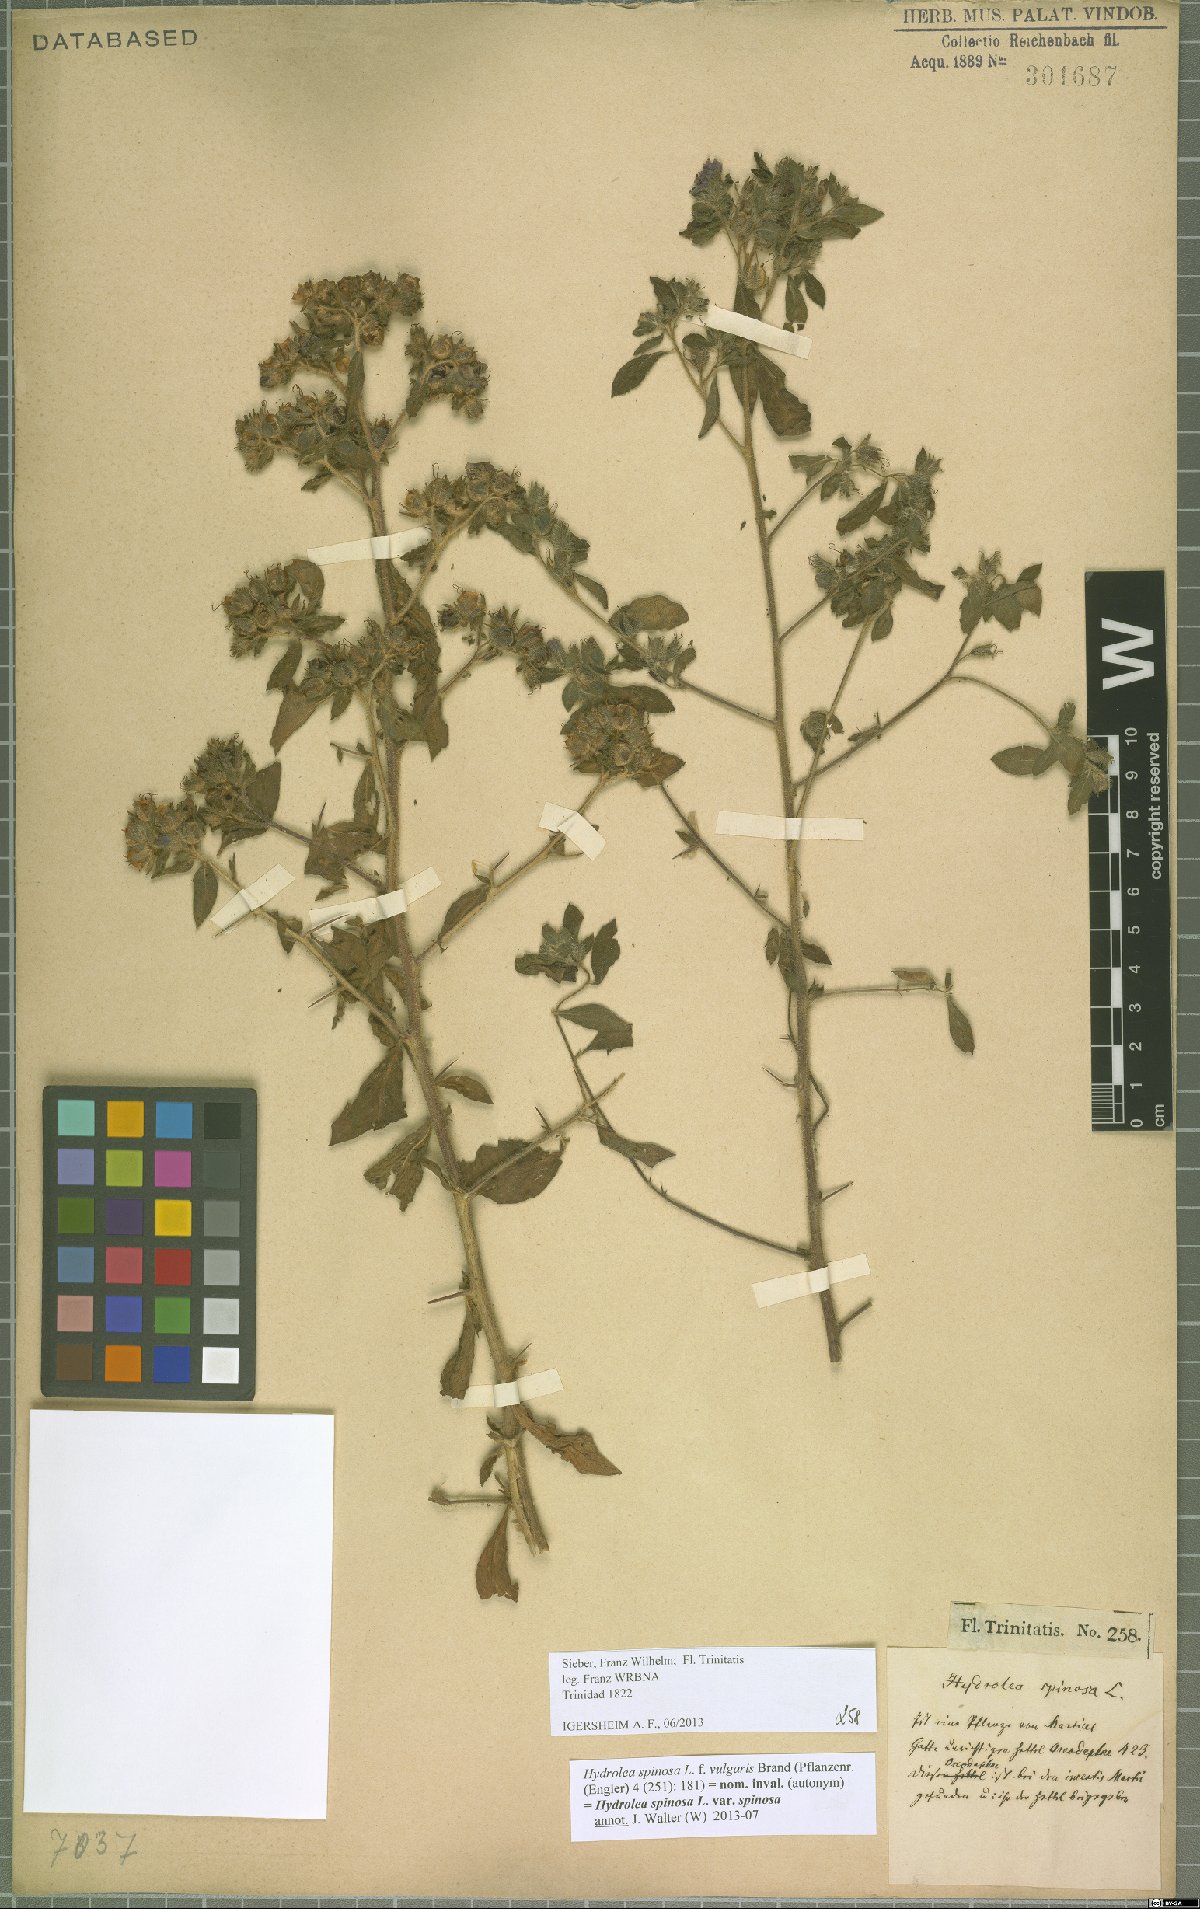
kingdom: Plantae
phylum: Tracheophyta
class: Magnoliopsida
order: Solanales
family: Hydroleaceae
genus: Hydrolea
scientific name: Hydrolea spinosa
